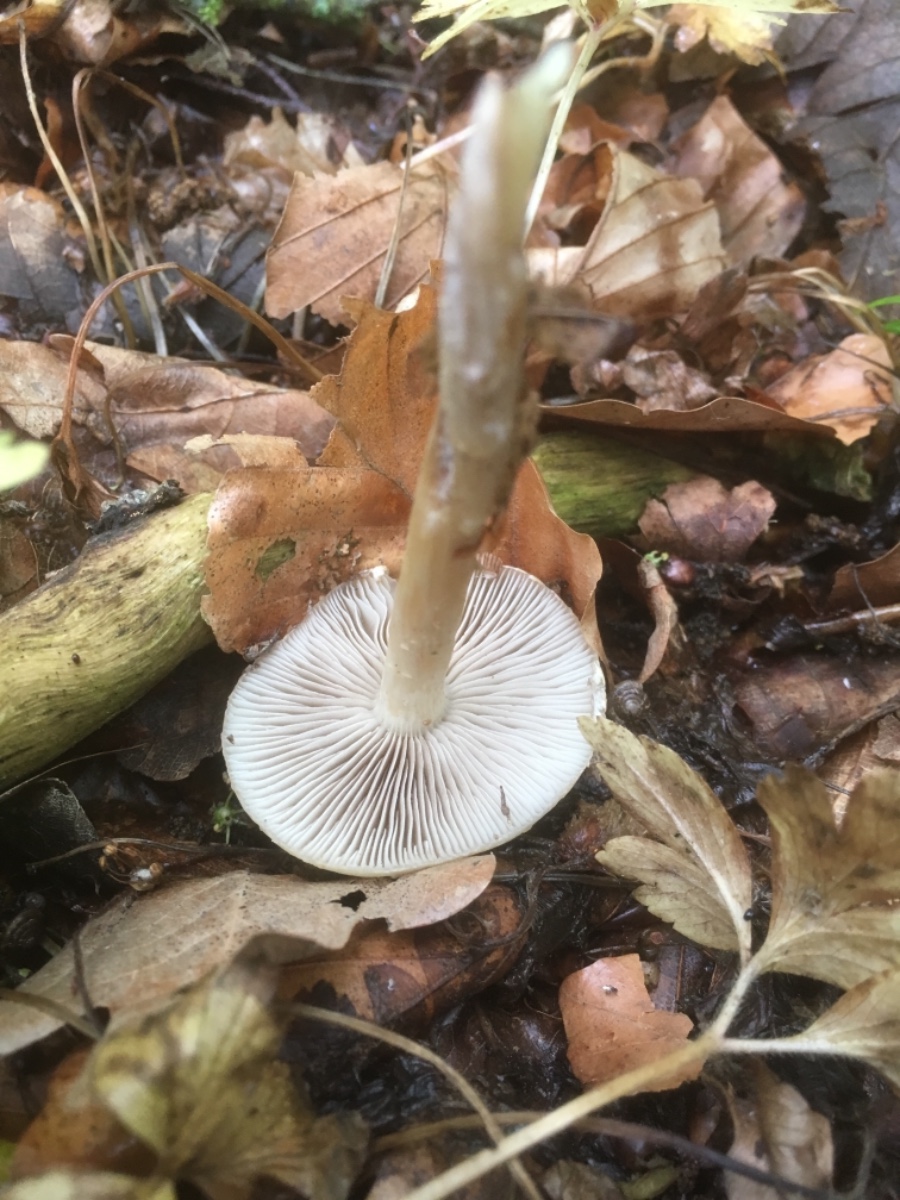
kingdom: Fungi
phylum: Basidiomycota
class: Agaricomycetes
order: Agaricales
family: Strophariaceae
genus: Agrocybe
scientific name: Agrocybe
